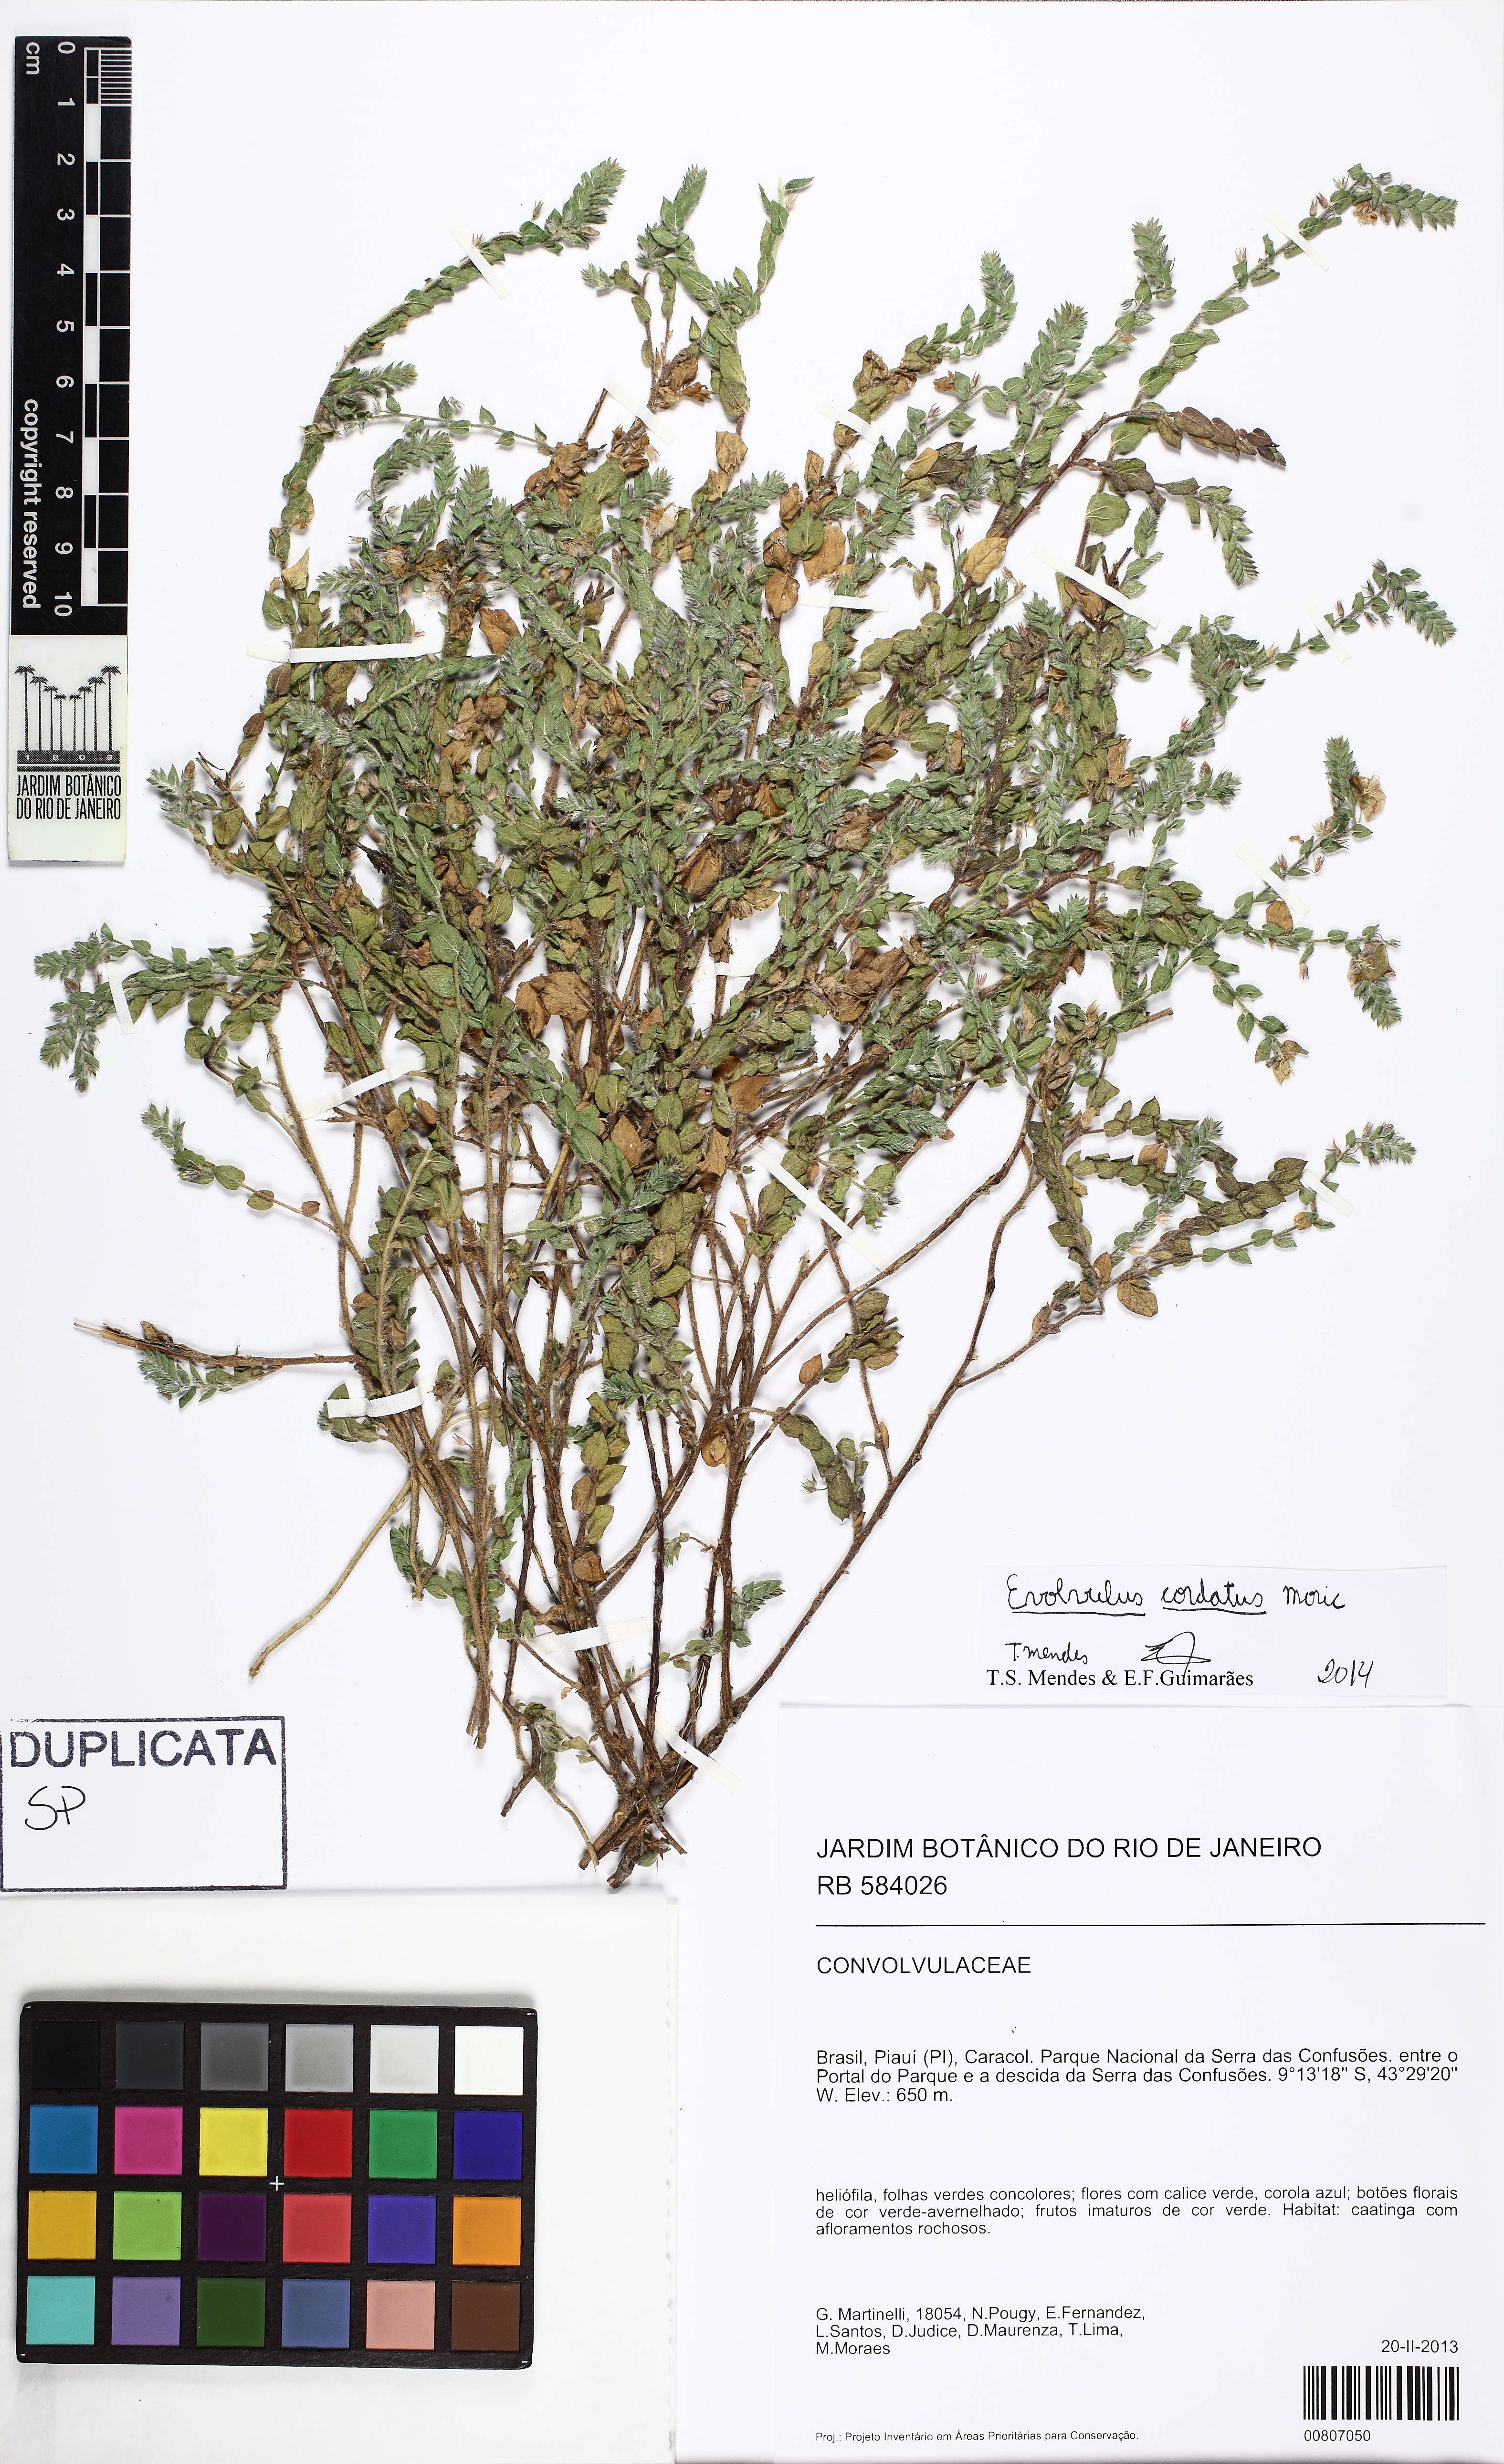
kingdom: Plantae
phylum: Tracheophyta
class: Magnoliopsida
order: Solanales
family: Convolvulaceae
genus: Evolvulus
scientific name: Evolvulus cordatus
